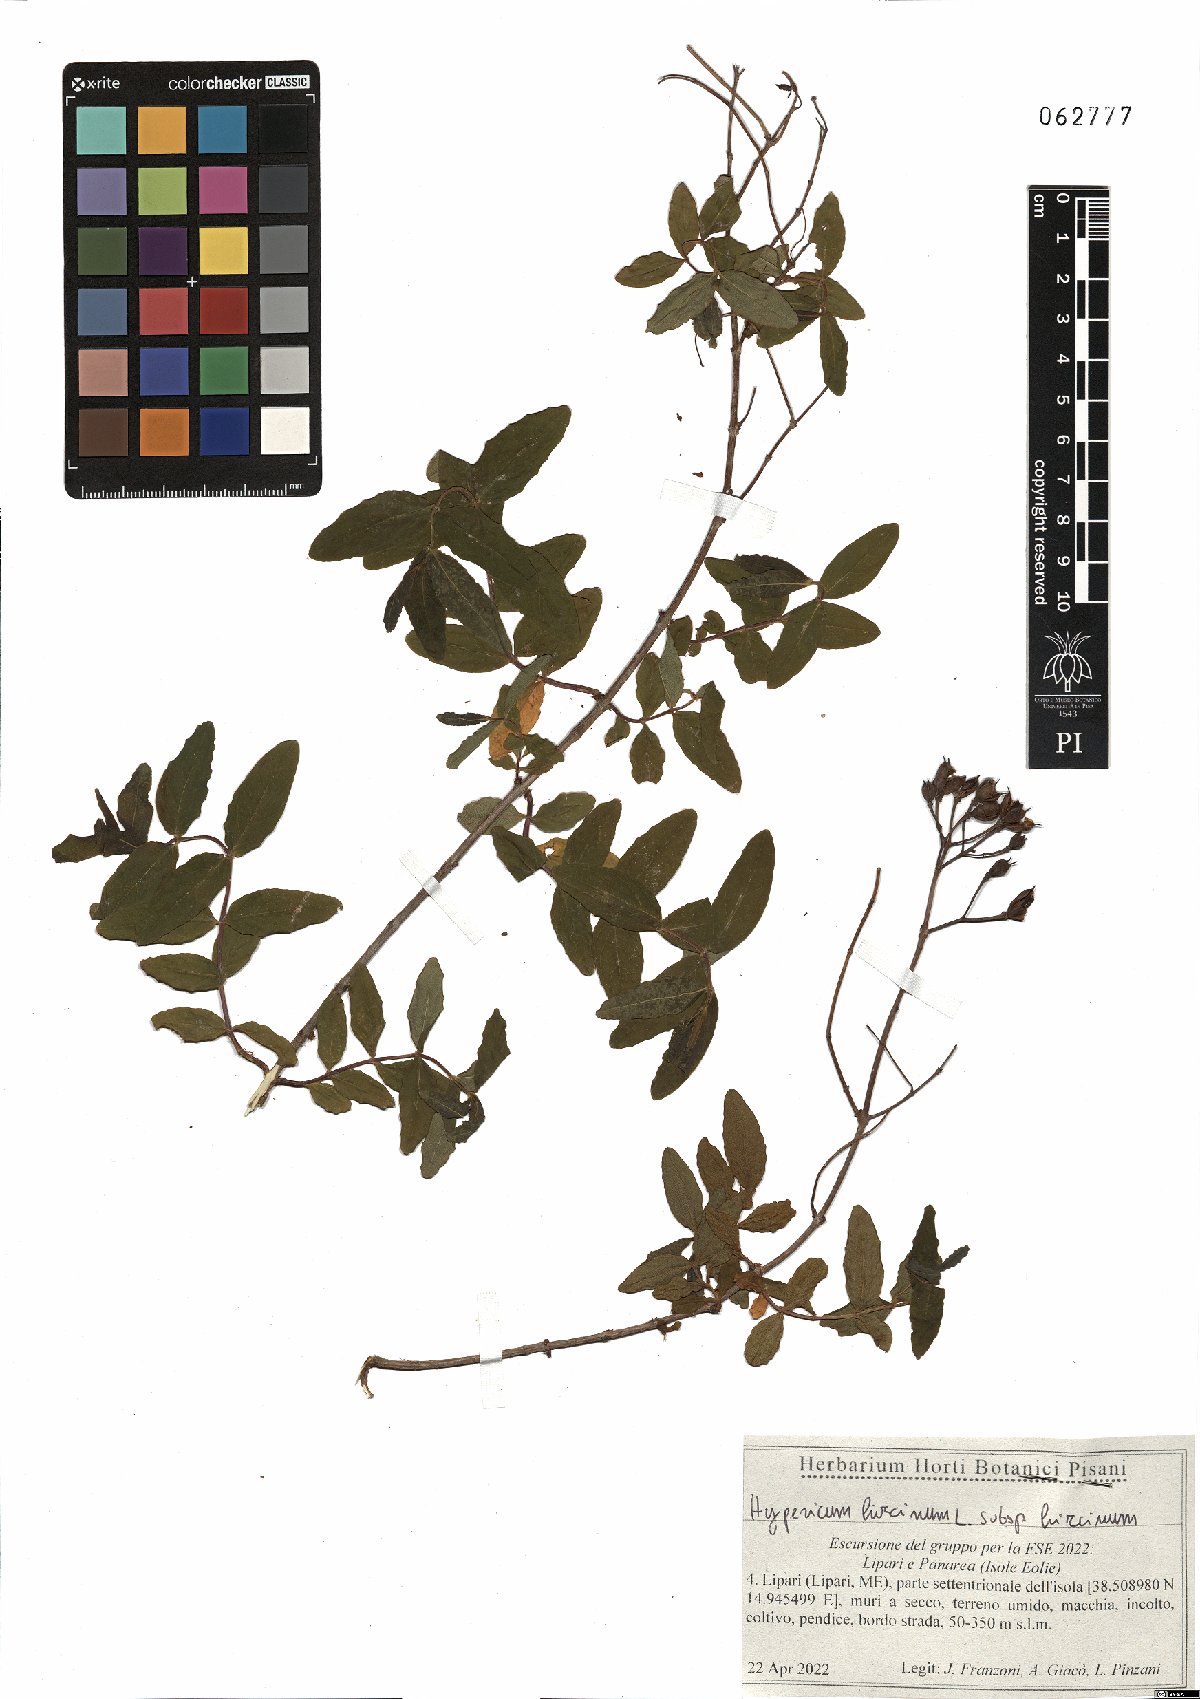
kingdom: Plantae
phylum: Tracheophyta
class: Magnoliopsida
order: Malpighiales
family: Hypericaceae
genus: Hypericum
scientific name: Hypericum hircinum
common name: Stinking tutsan
